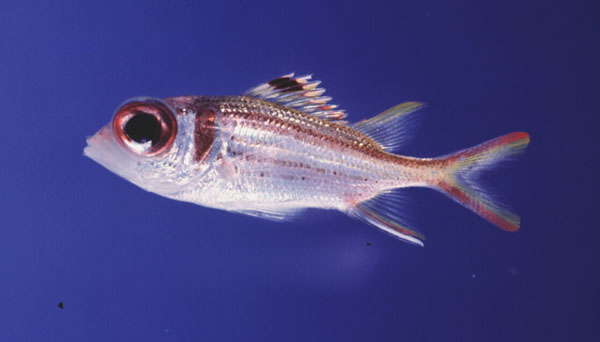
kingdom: Animalia
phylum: Chordata
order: Beryciformes
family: Holocentridae
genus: Neoniphon
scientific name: Neoniphon sammara
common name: Sammara squirrelfish
